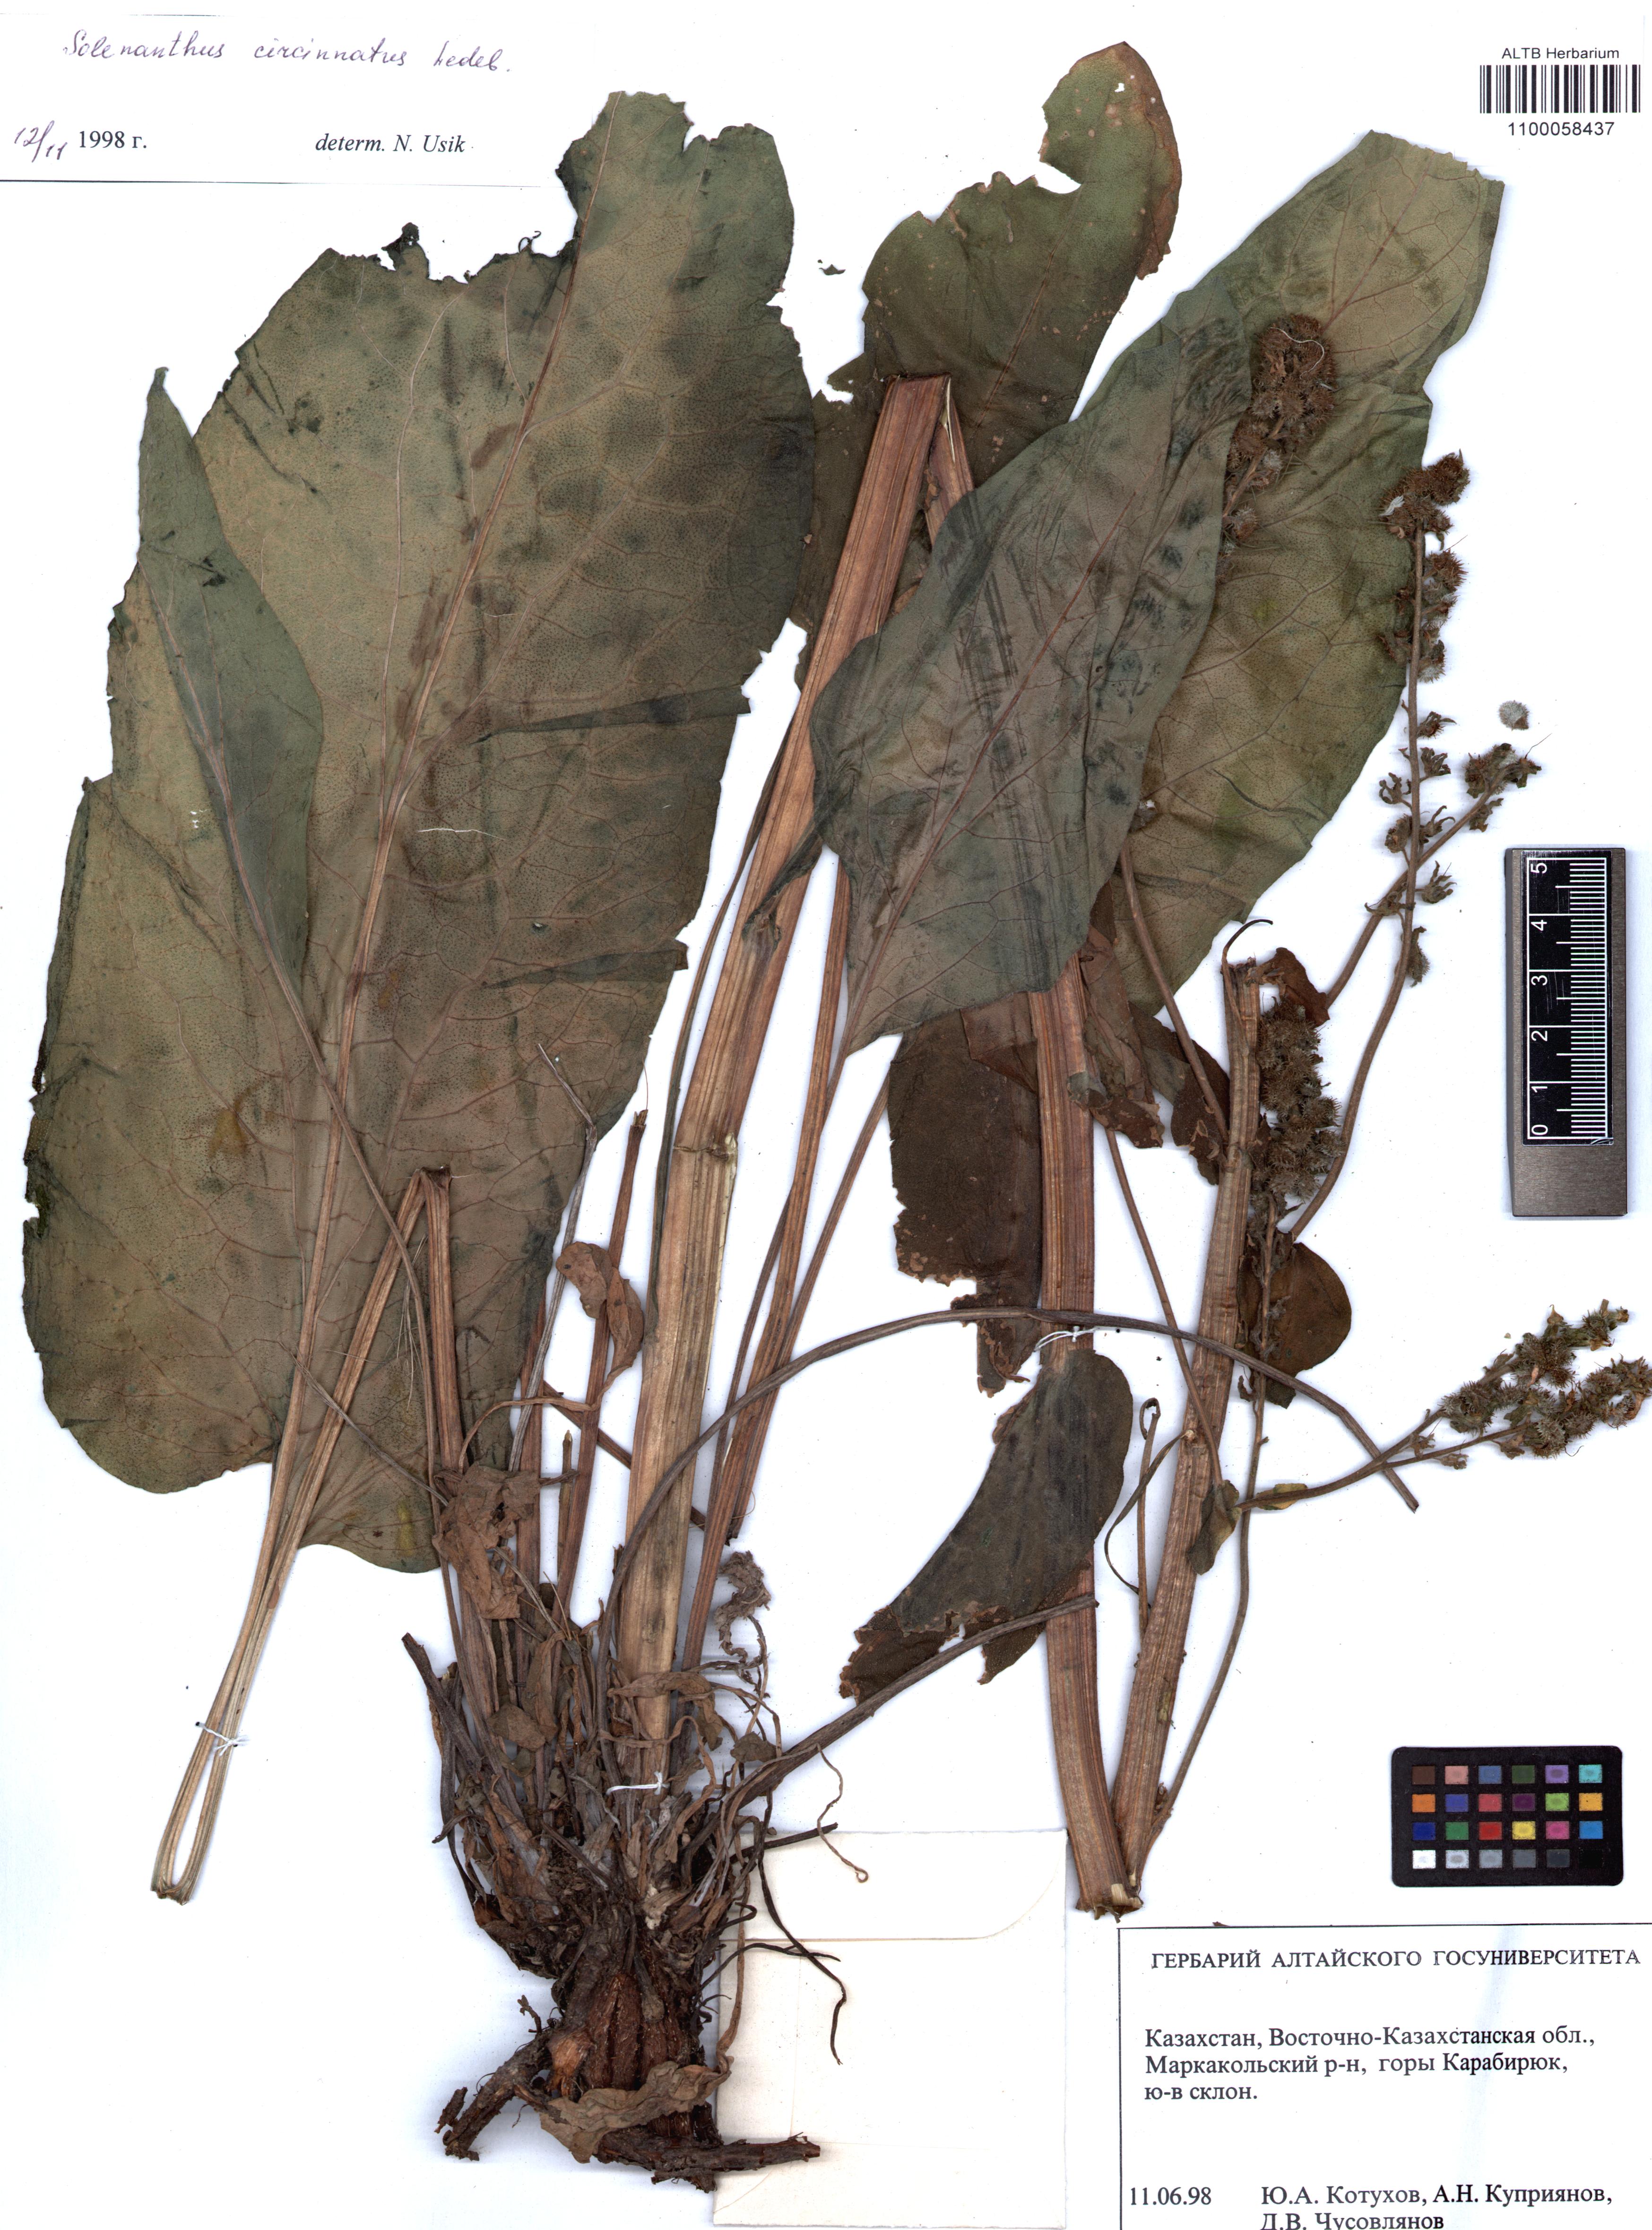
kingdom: Plantae
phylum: Tracheophyta
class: Magnoliopsida
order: Boraginales
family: Boraginaceae
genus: Solenanthus
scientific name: Solenanthus circinnatus
